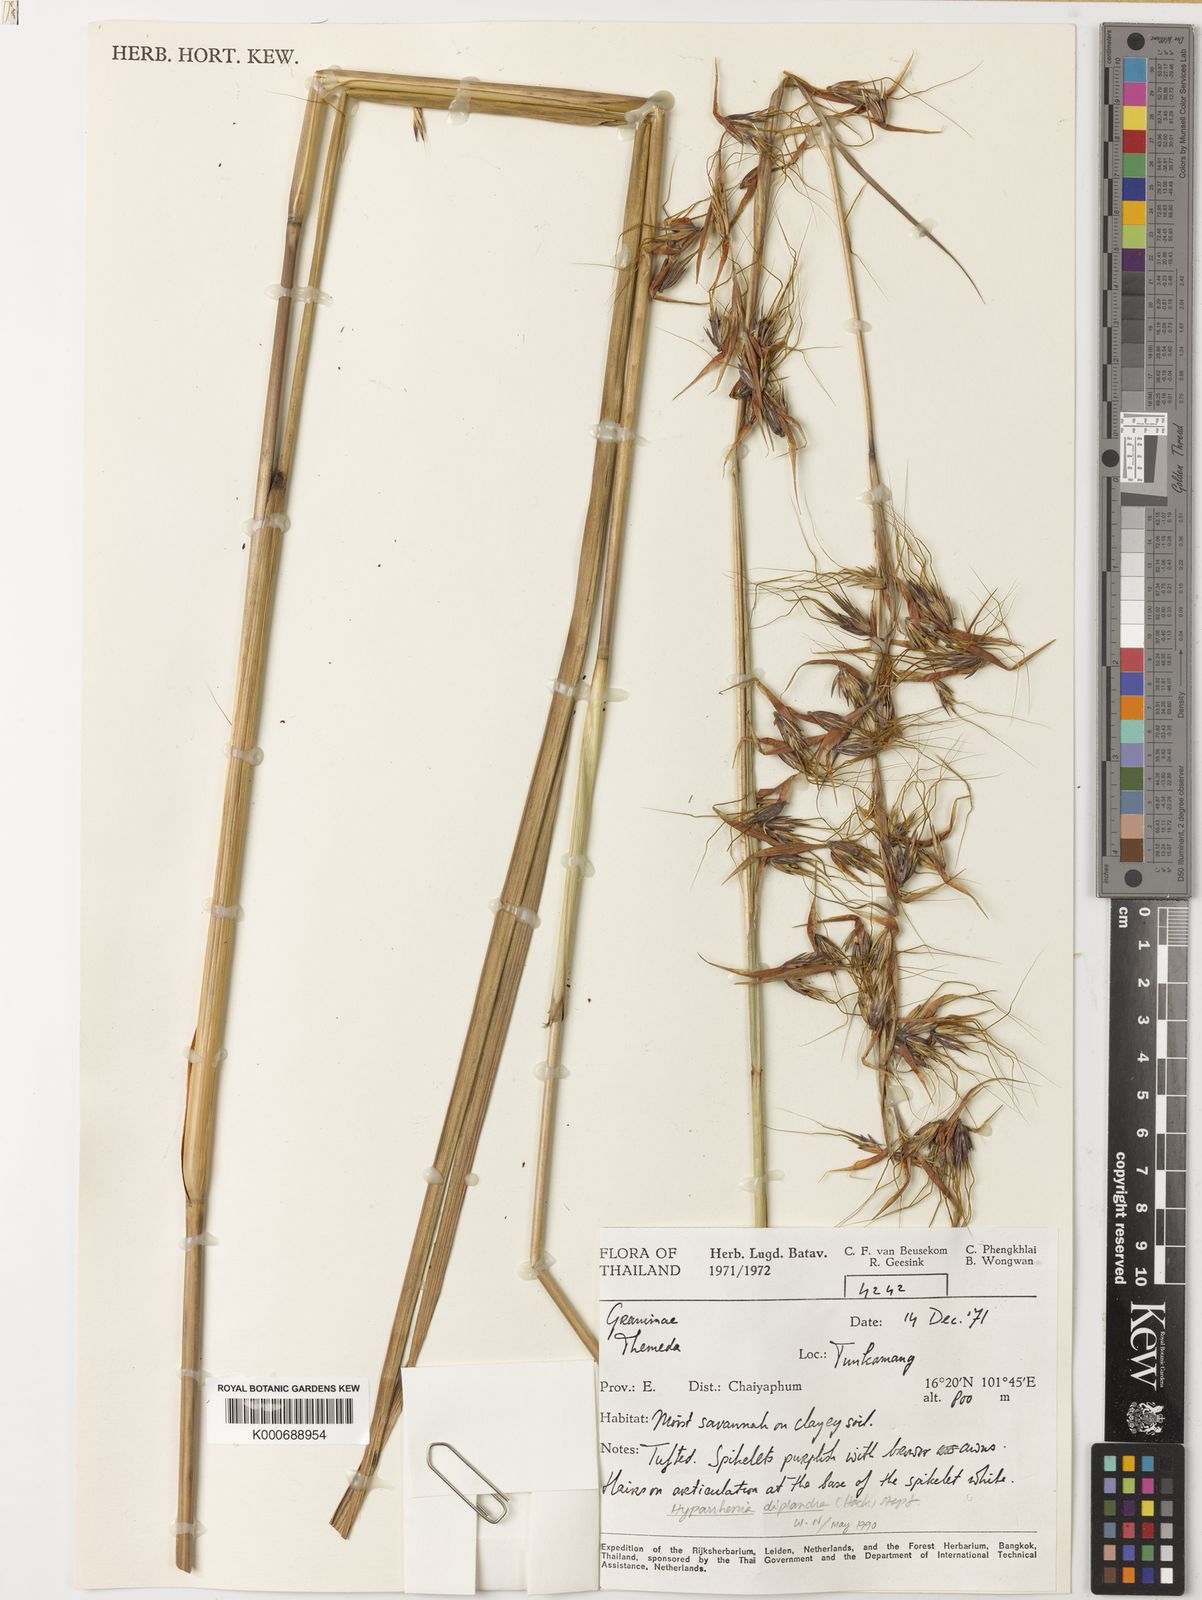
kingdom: Plantae
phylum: Tracheophyta
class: Liliopsida
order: Poales
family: Poaceae
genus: Themeda
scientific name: Themeda villosa
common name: Silky kangaroo grass
